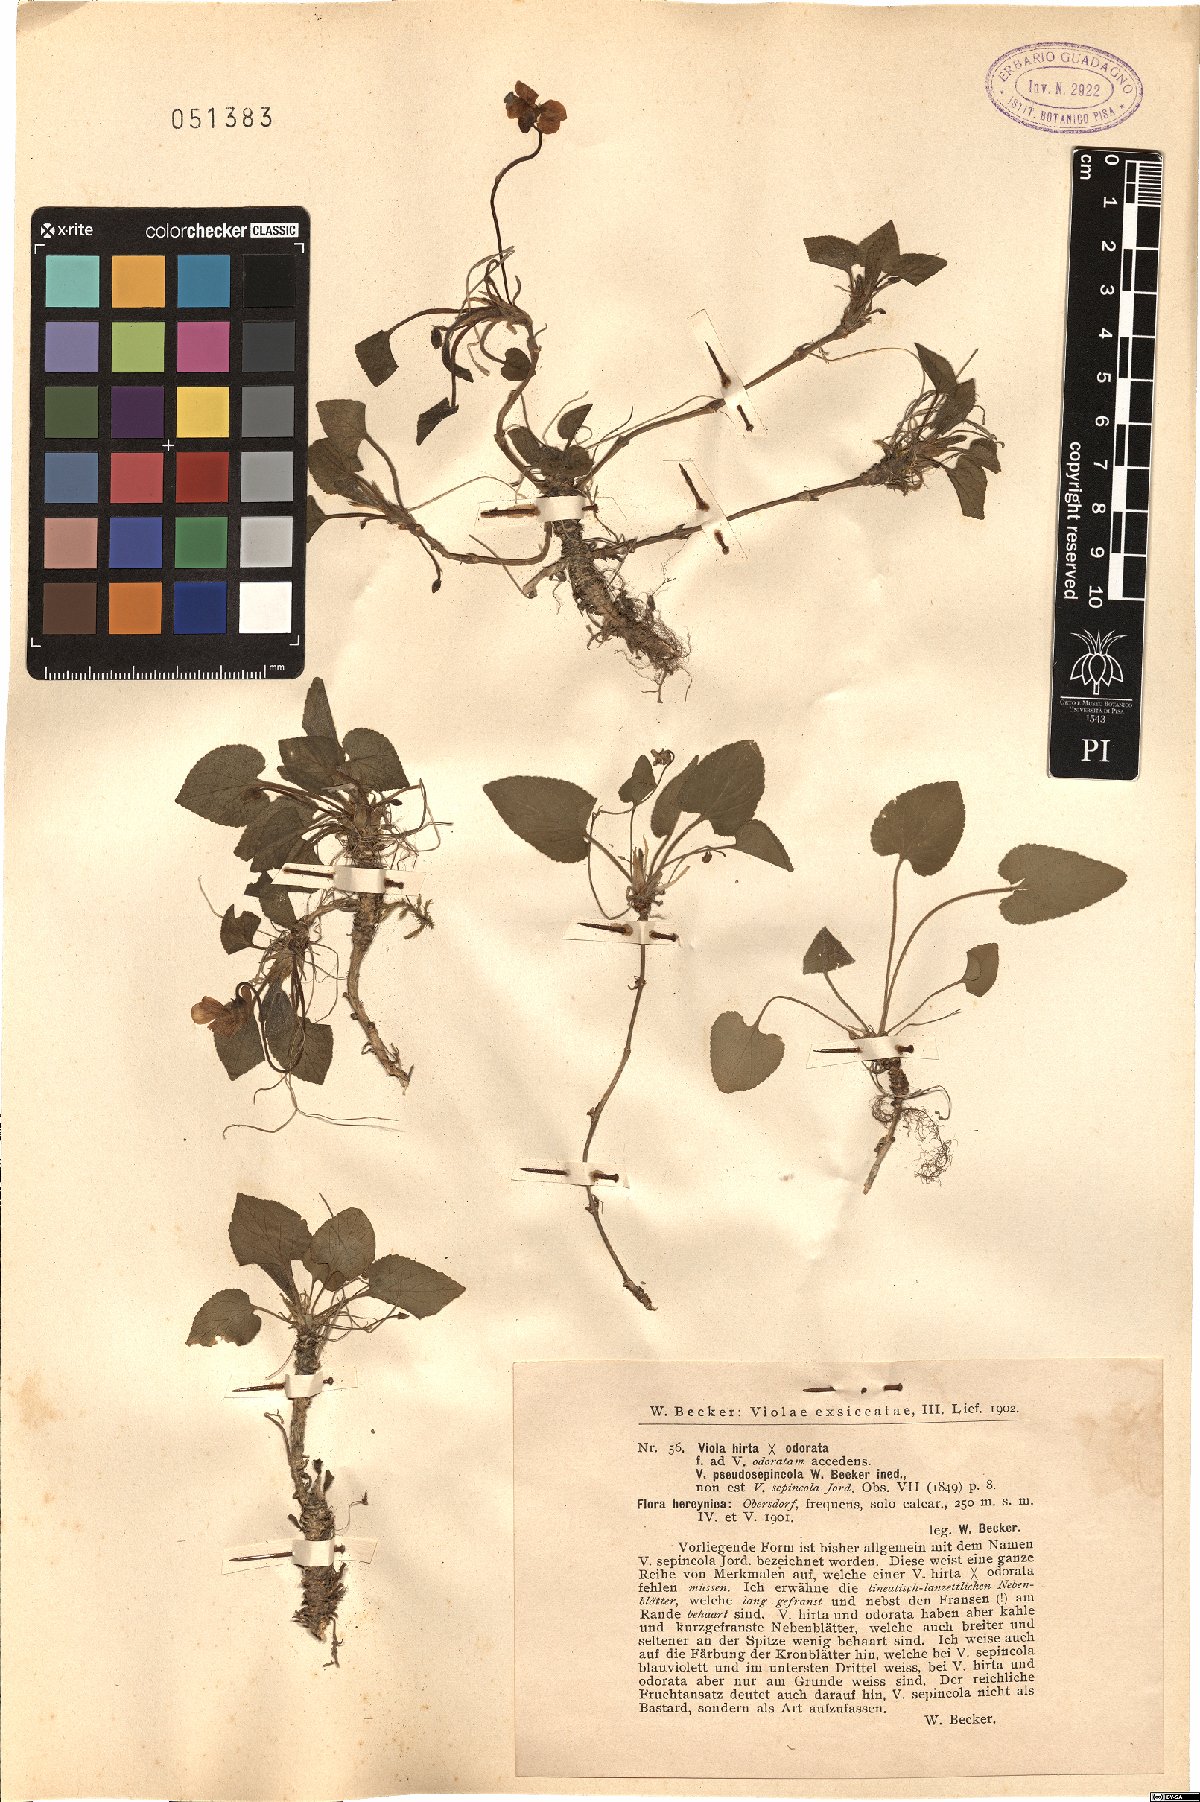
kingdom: Plantae
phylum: Tracheophyta
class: Magnoliopsida
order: Malpighiales
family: Violaceae
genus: Viola
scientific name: Viola pseudosepincola
